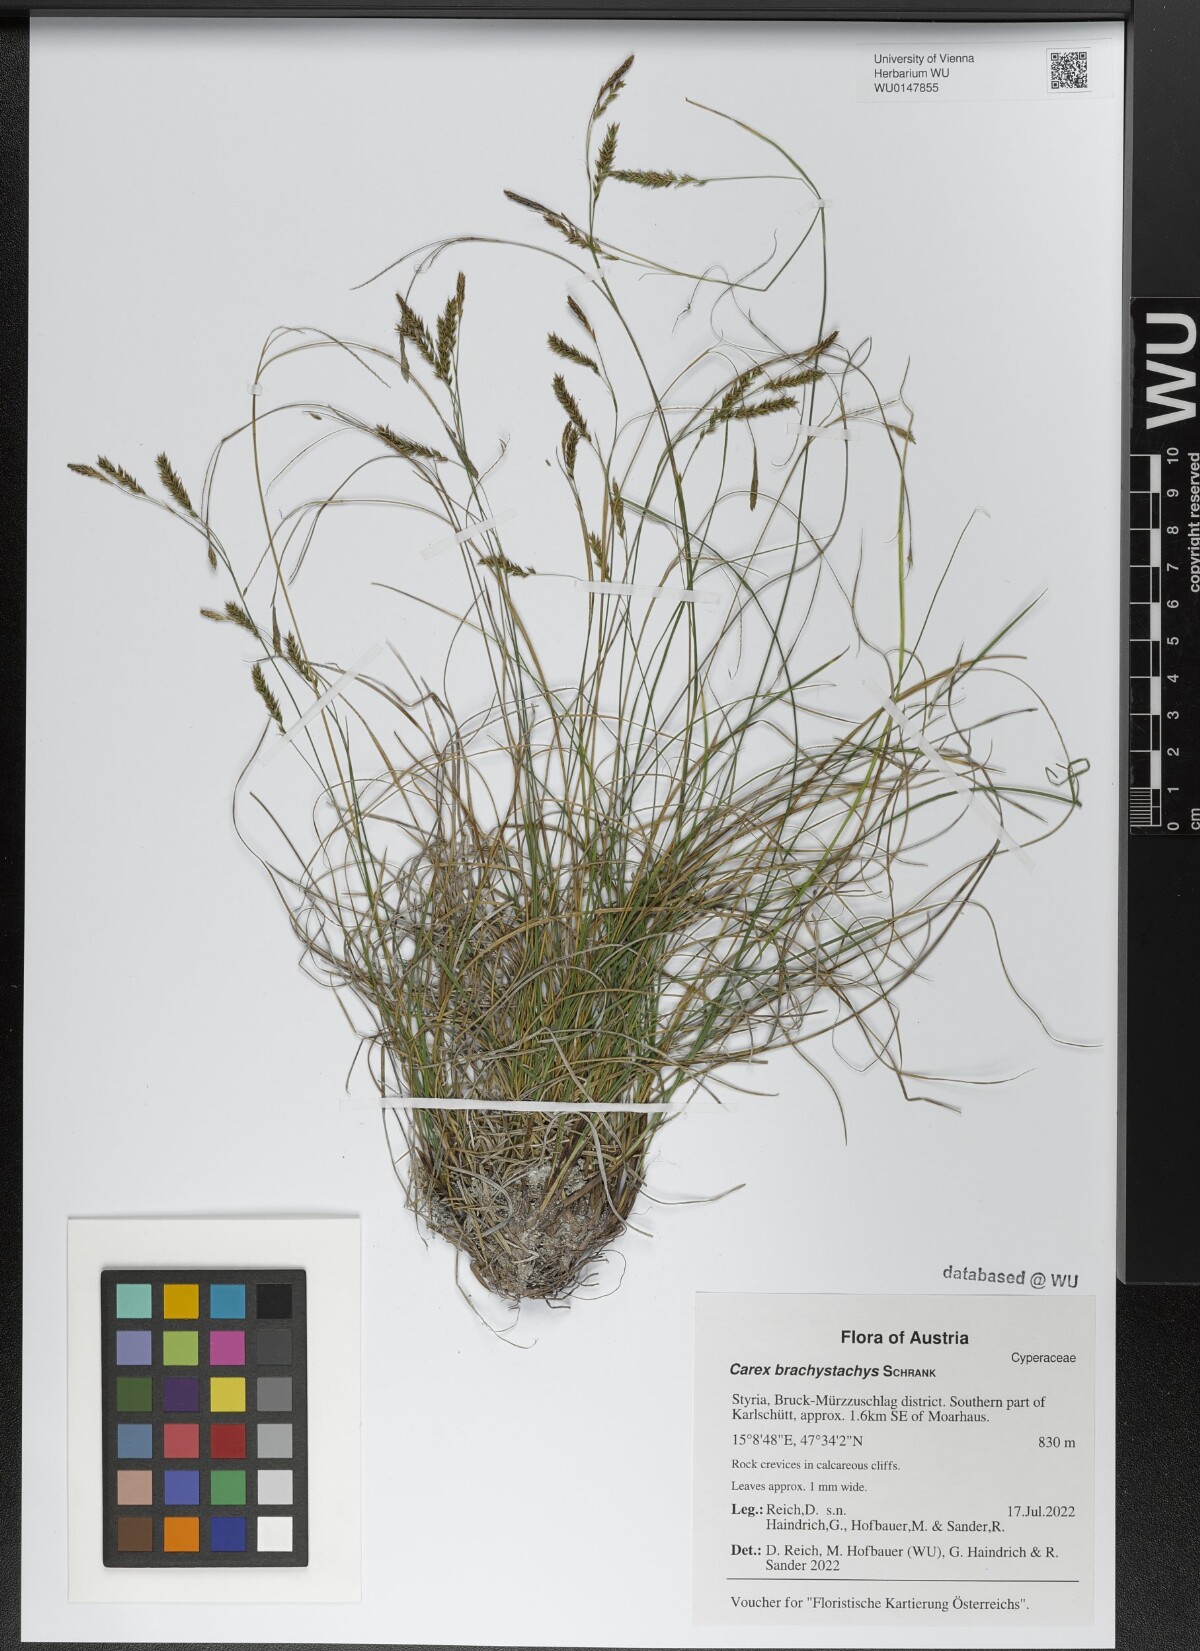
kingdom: Plantae
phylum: Tracheophyta
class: Liliopsida
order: Poales
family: Cyperaceae
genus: Carex
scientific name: Carex brachystachys
